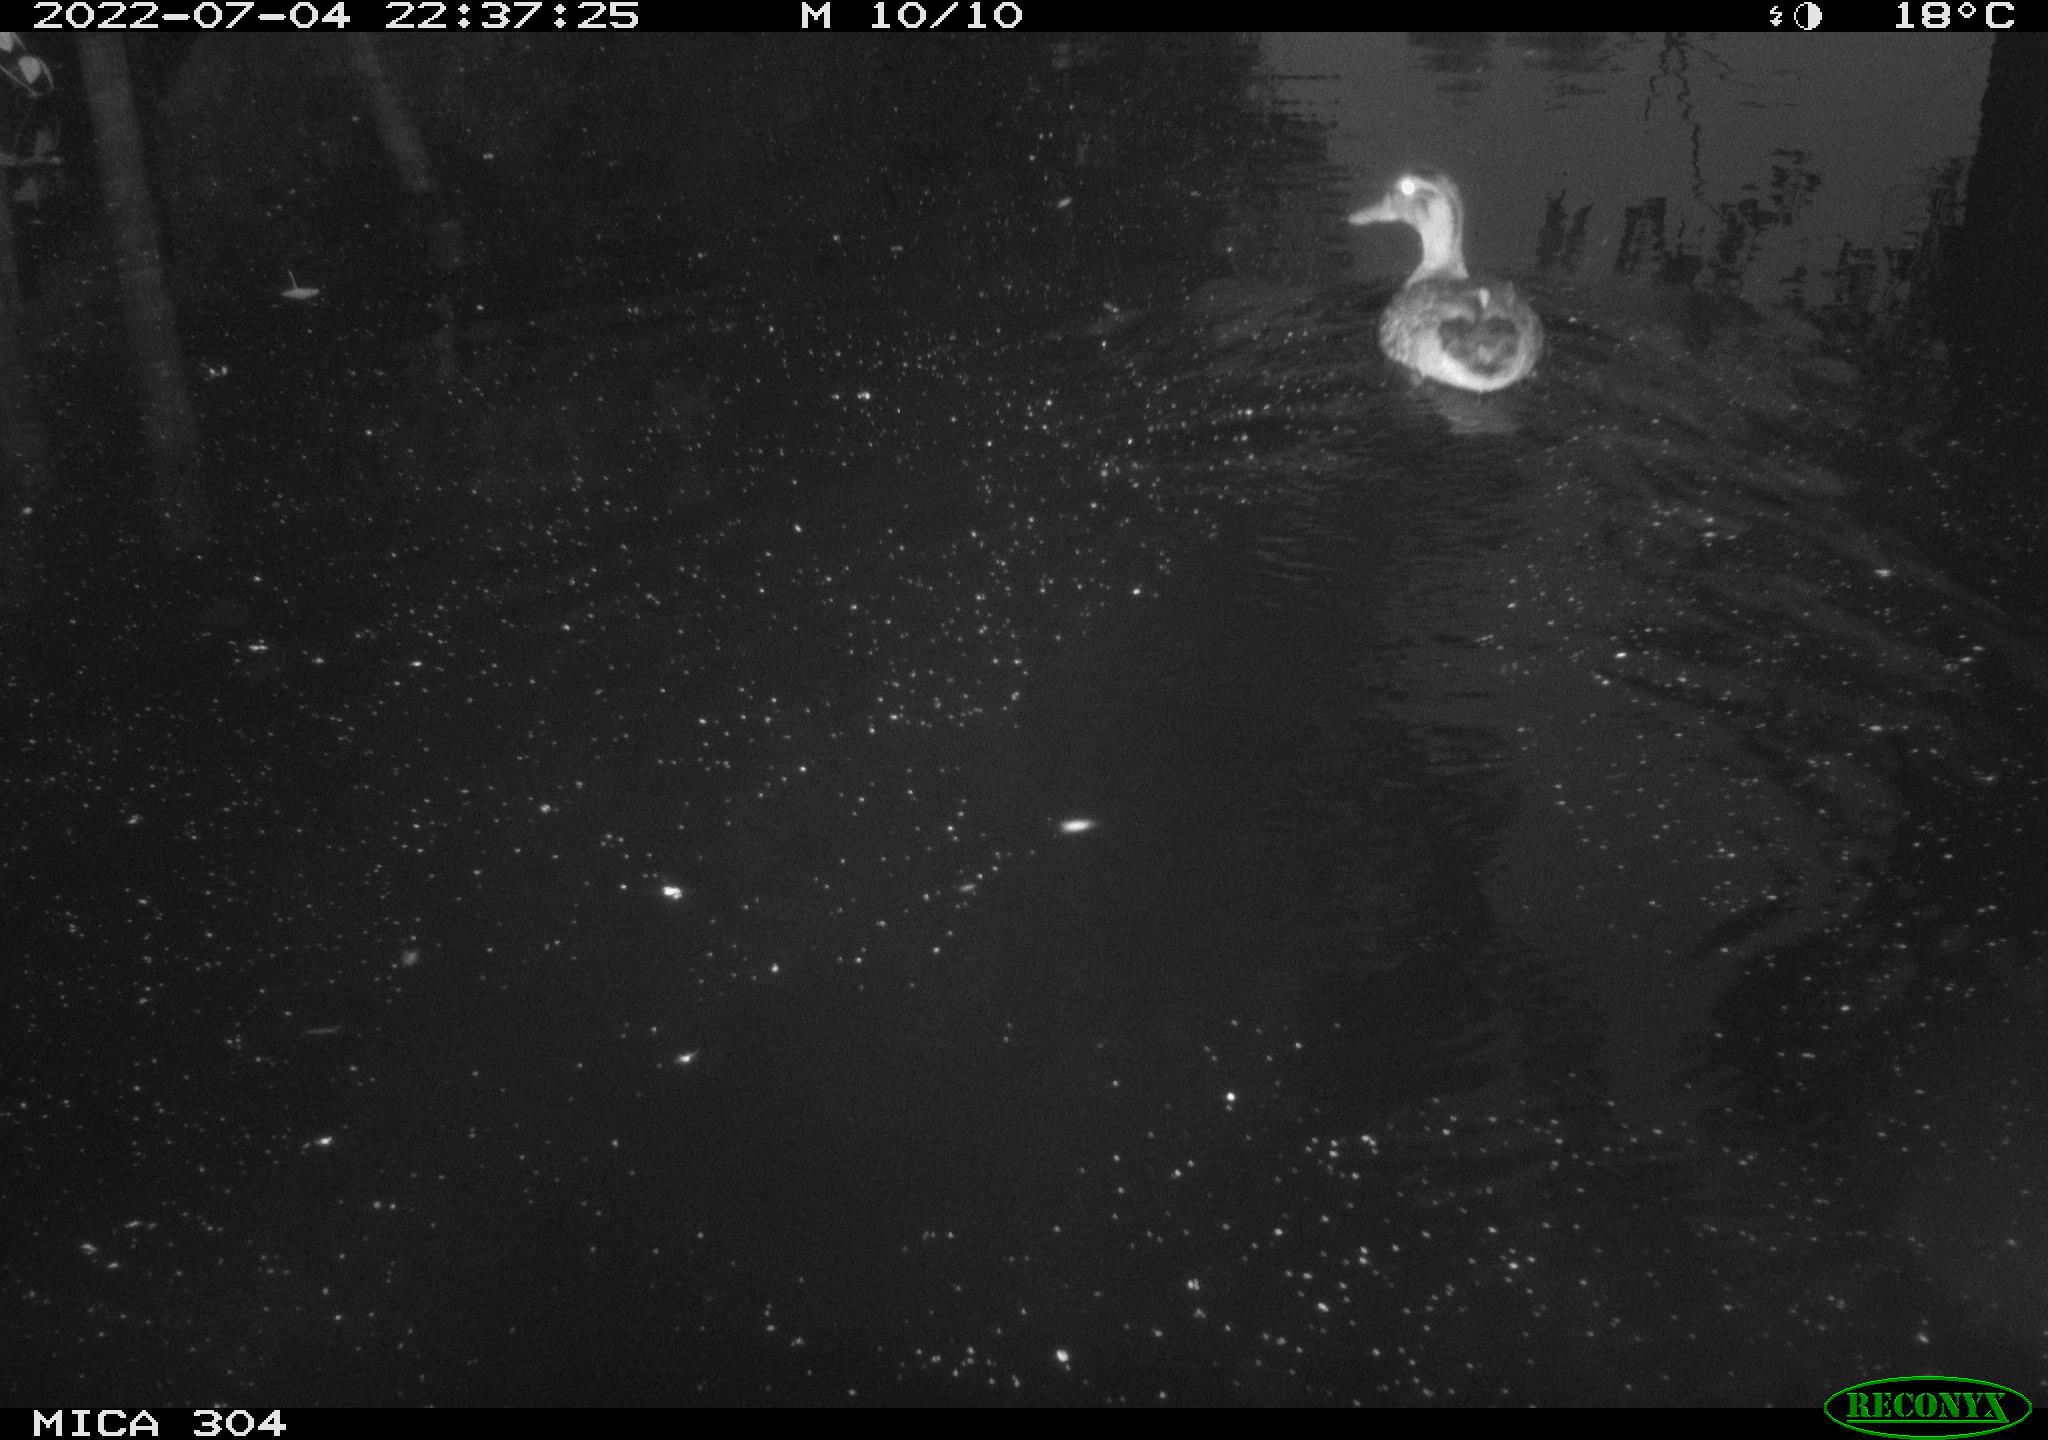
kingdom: Animalia
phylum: Chordata
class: Aves
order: Anseriformes
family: Anatidae
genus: Anas
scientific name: Anas platyrhynchos
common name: Mallard
